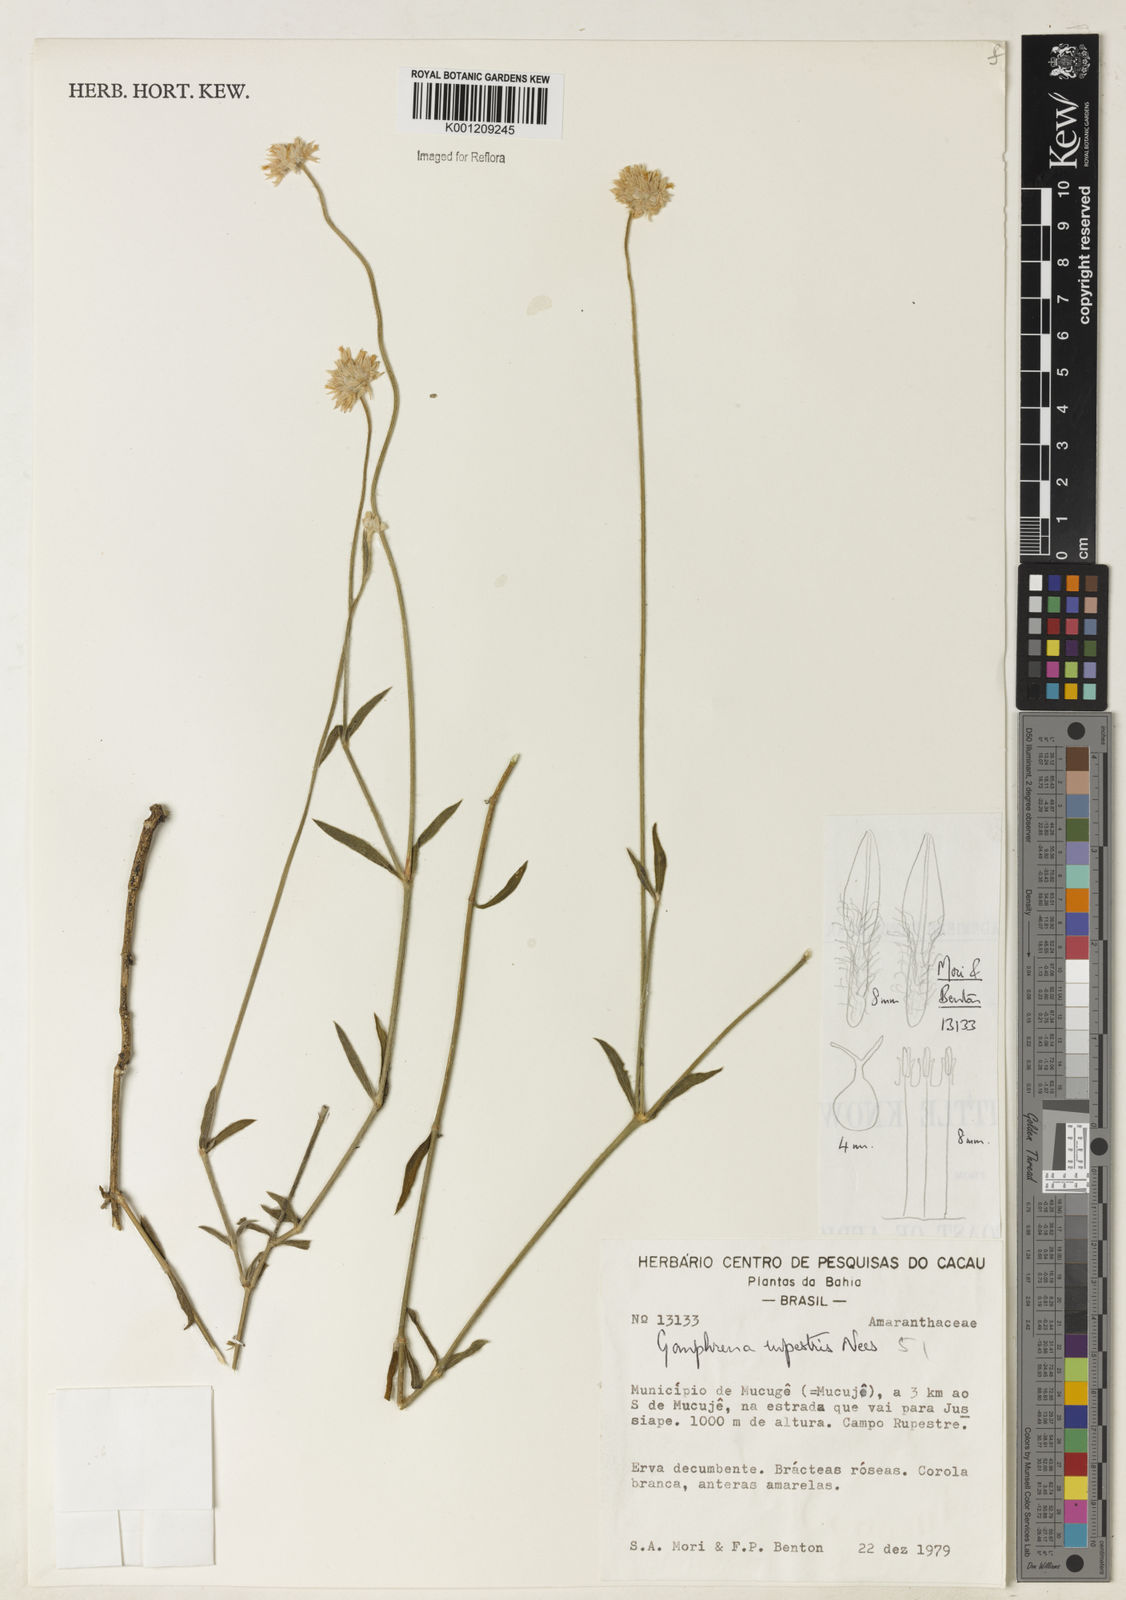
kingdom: Plantae
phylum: Tracheophyta
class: Magnoliopsida
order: Caryophyllales
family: Amaranthaceae
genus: Gomphrena
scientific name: Gomphrena rupestris
